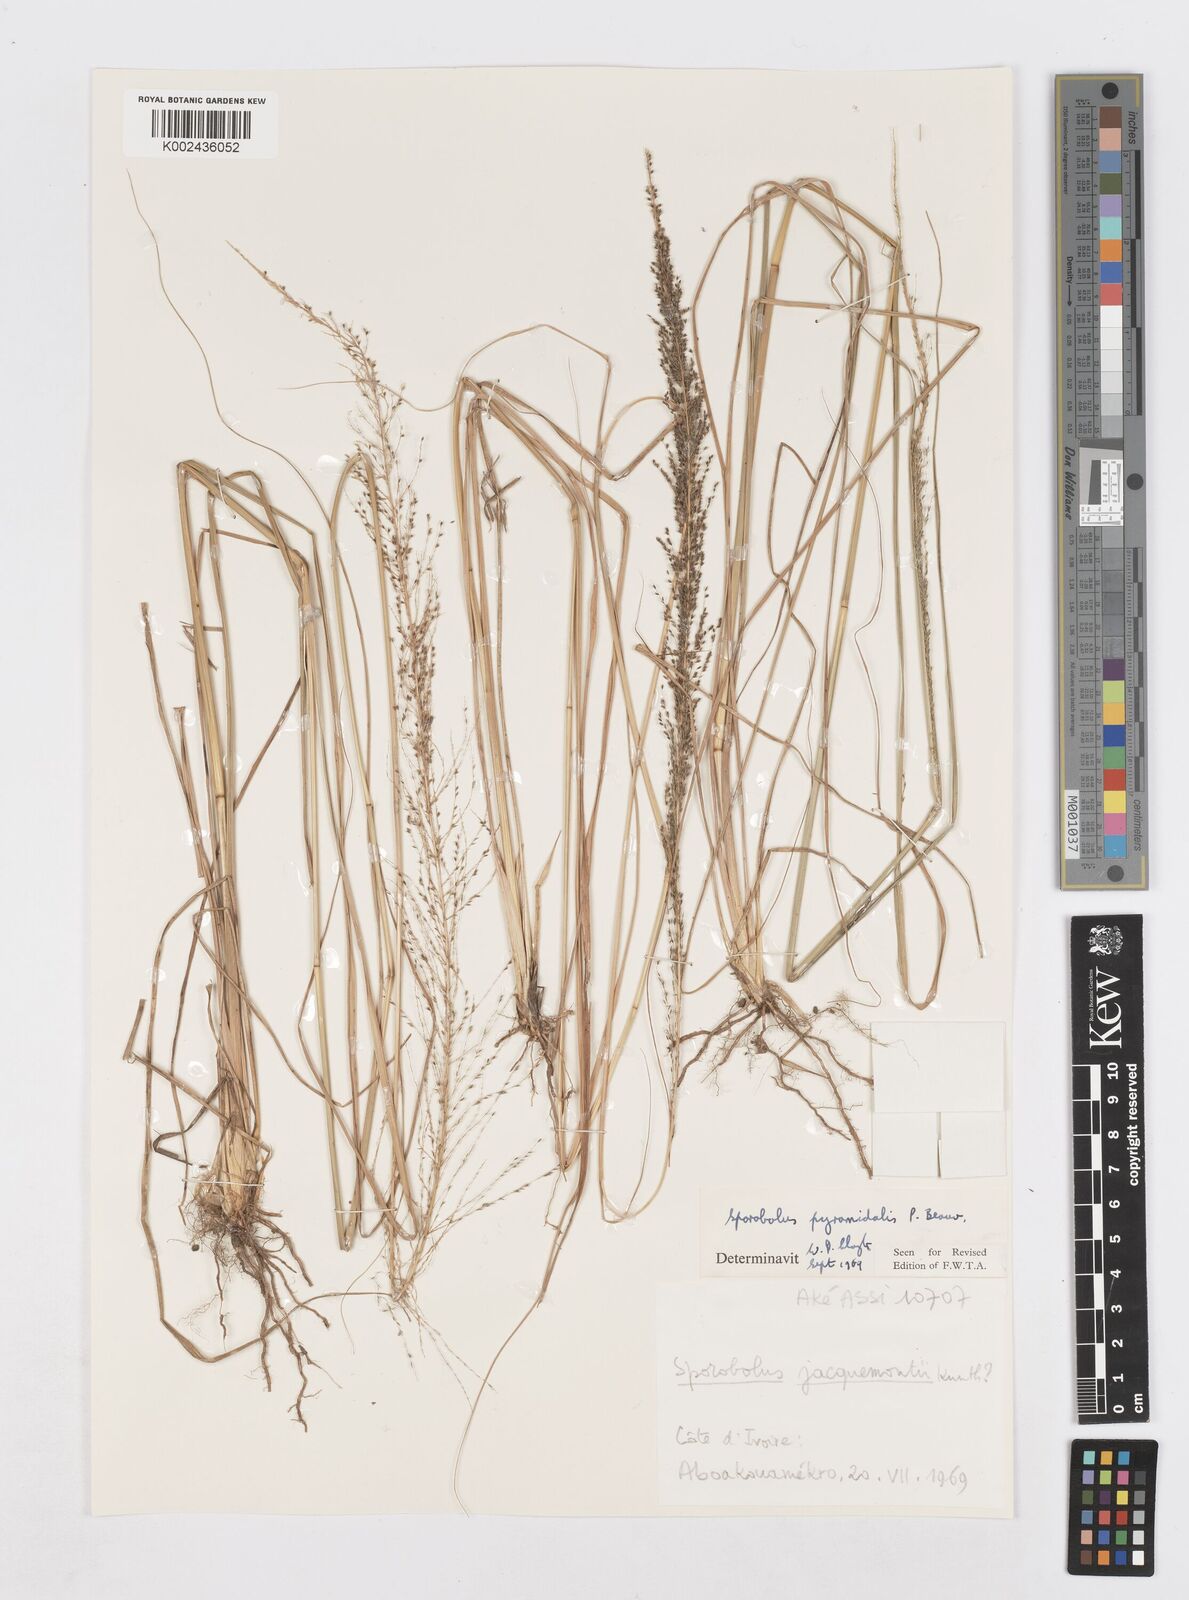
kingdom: Plantae
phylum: Tracheophyta
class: Liliopsida
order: Poales
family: Poaceae
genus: Sporobolus
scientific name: Sporobolus pyramidalis
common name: West indian dropseed
